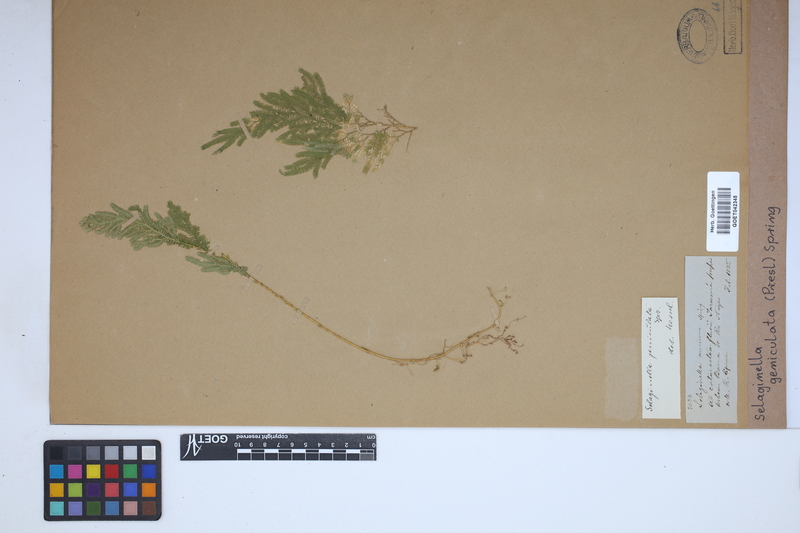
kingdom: Plantae
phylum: Tracheophyta
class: Lycopodiopsida
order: Selaginellales
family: Selaginellaceae
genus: Selaginella
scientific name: Selaginella geniculata
